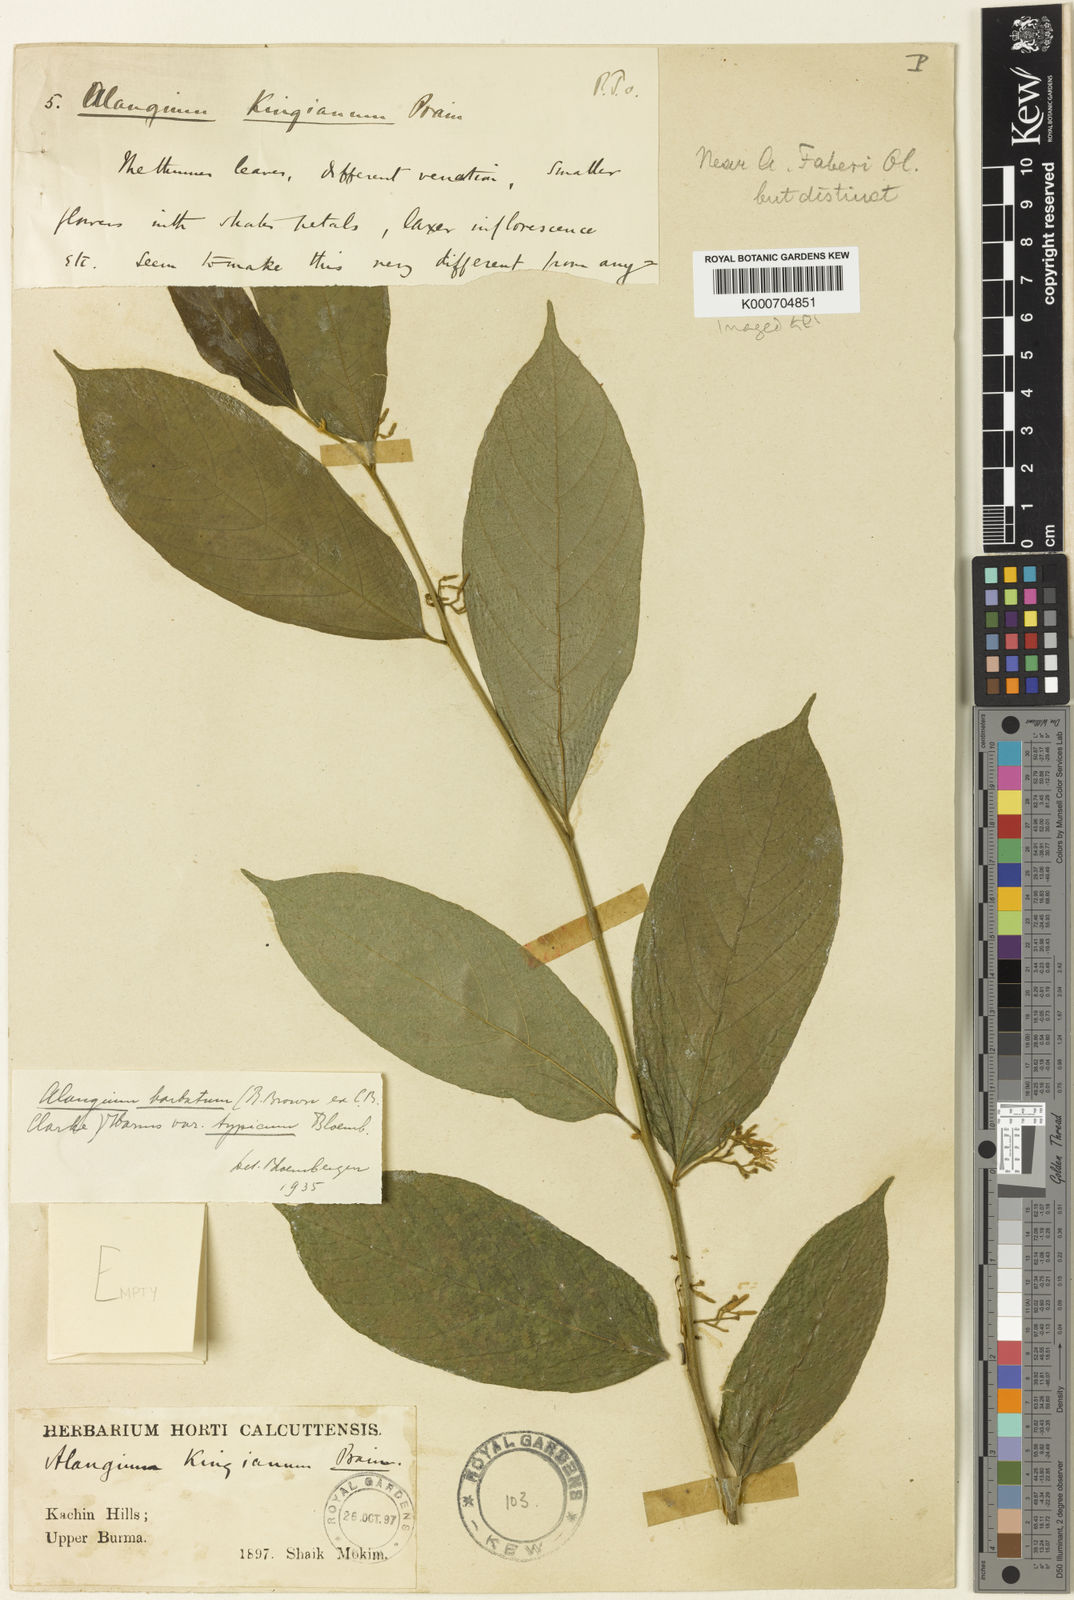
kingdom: Plantae
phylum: Tracheophyta
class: Magnoliopsida
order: Cornales
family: Cornaceae
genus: Alangium
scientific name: Alangium
